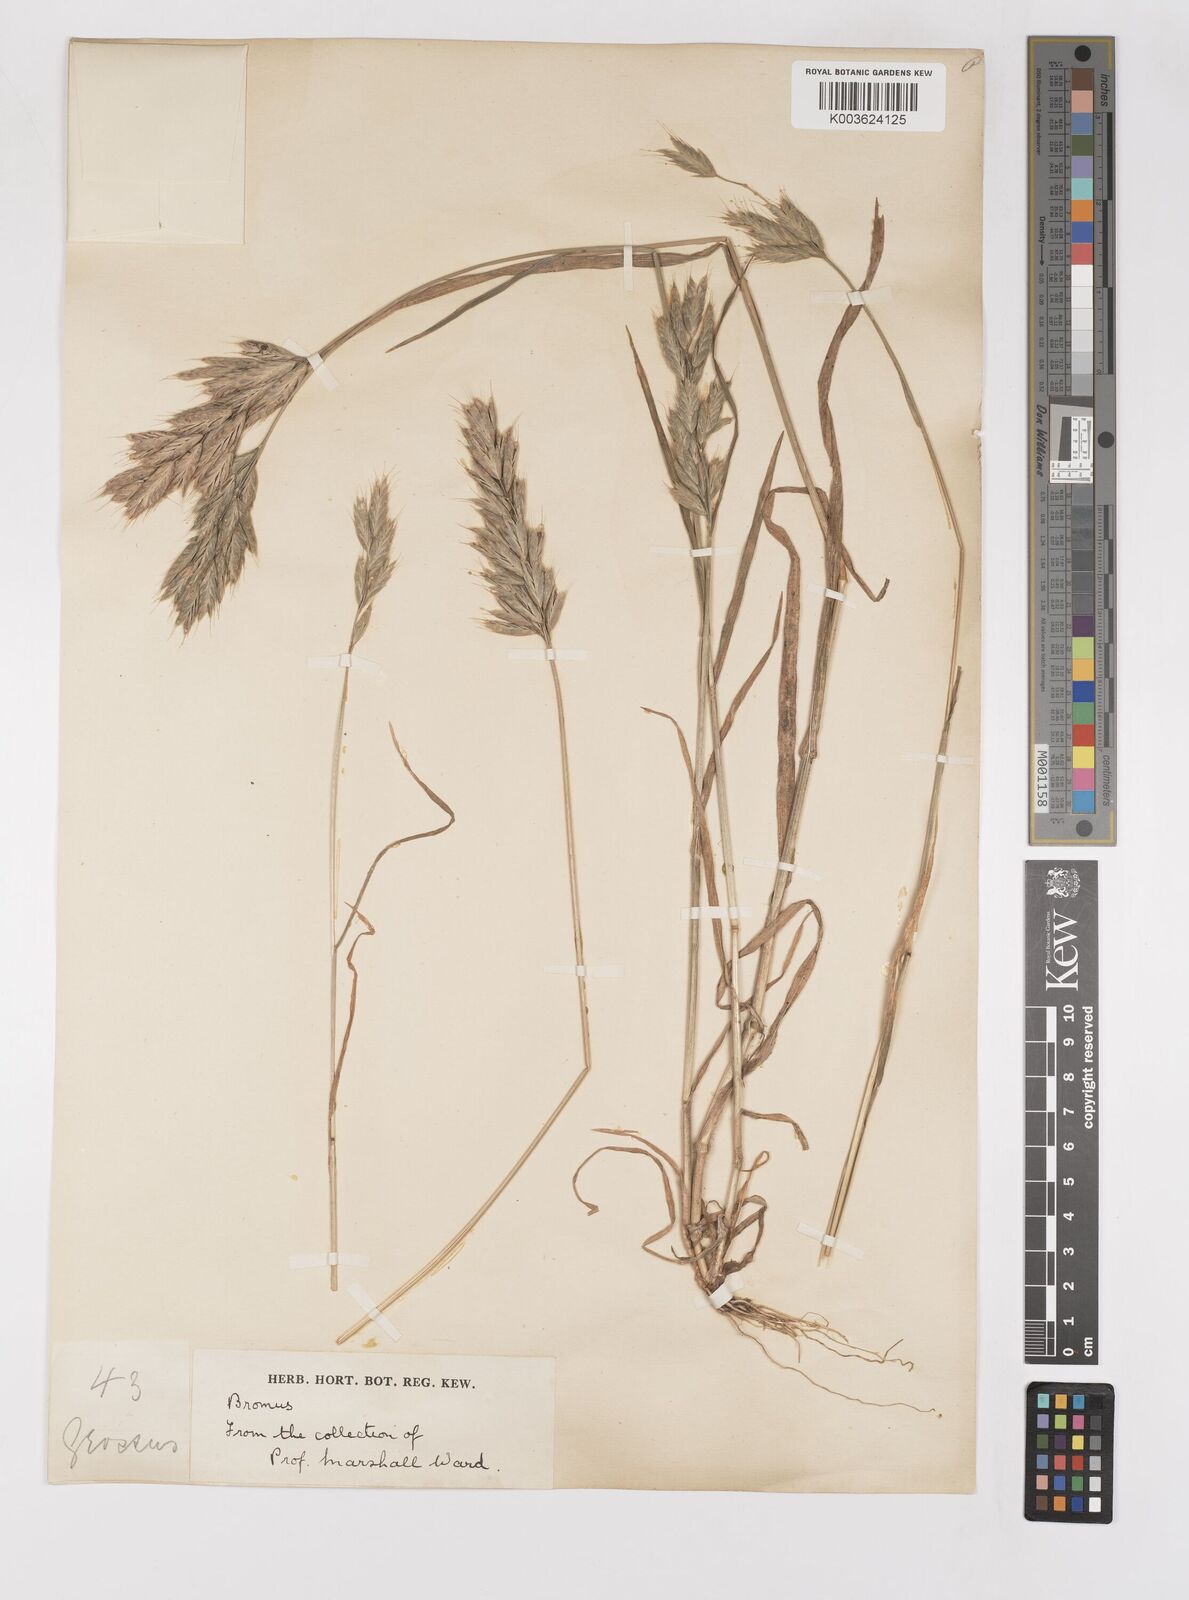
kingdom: Plantae
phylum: Tracheophyta
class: Liliopsida
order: Poales
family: Poaceae
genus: Bromus
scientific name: Bromus hordeaceus
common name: Soft brome
